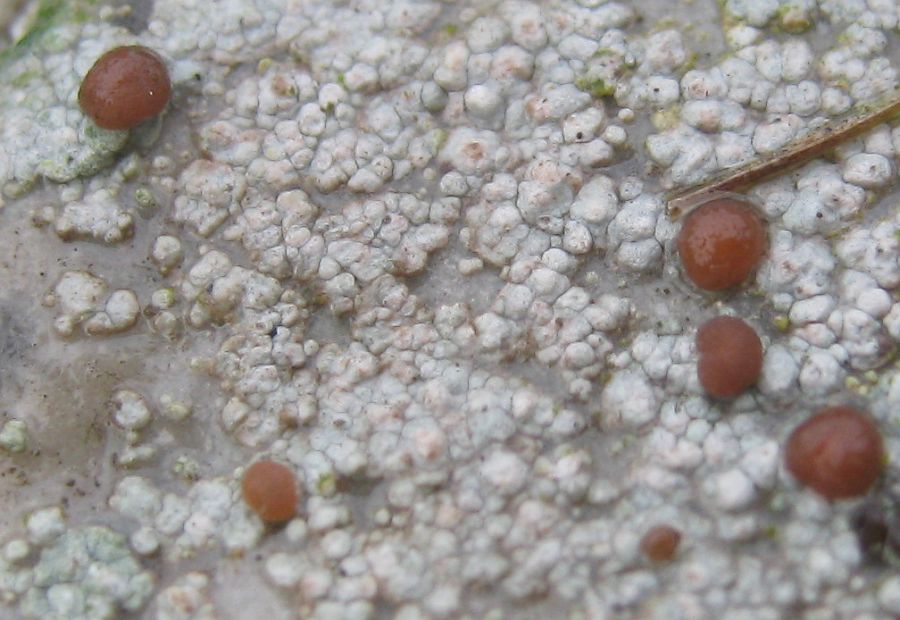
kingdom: Fungi
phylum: Ascomycota
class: Lecanoromycetes
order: Baeomycetales
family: Trapeliaceae
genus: Trapelia
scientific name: Trapelia coarctata
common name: hvidrandet brunskivelav
